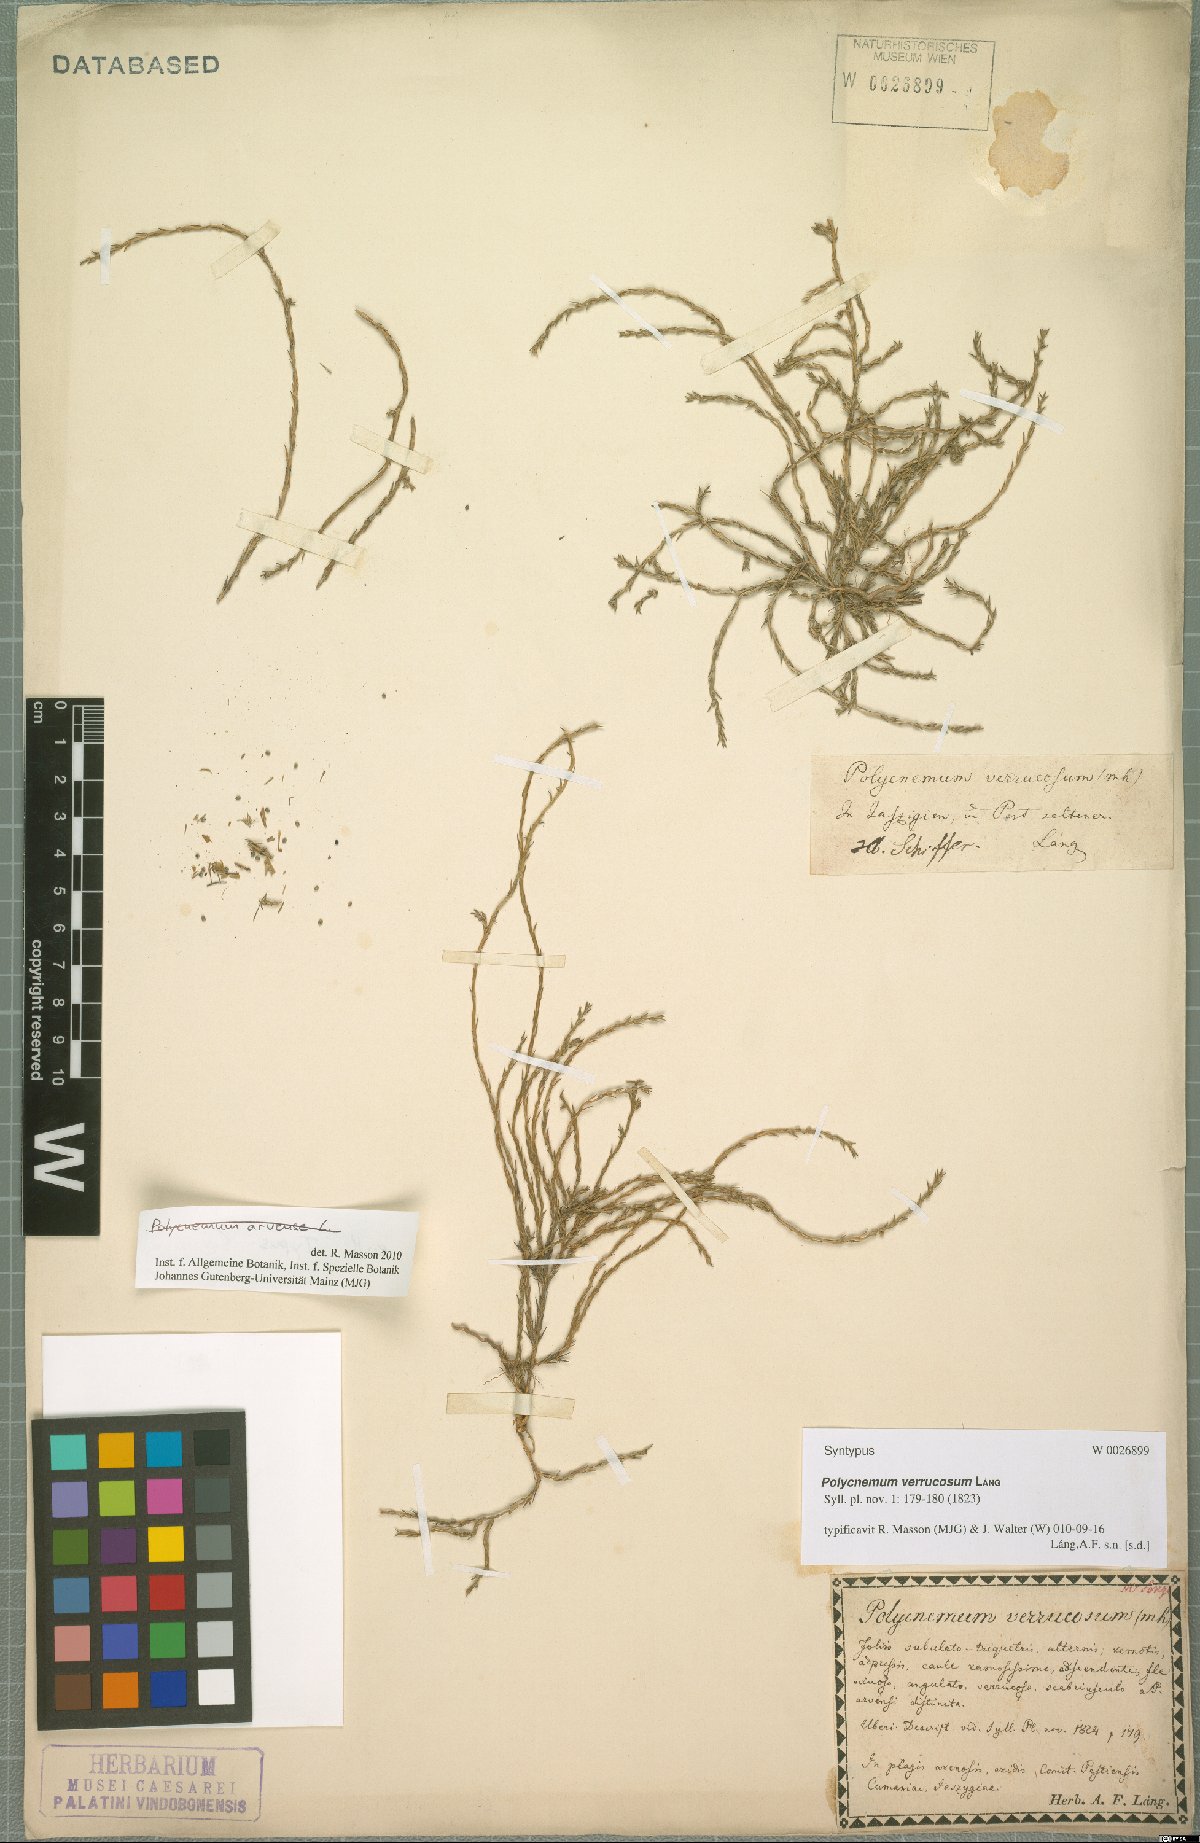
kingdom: Plantae
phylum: Tracheophyta
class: Magnoliopsida
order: Caryophyllales
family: Amaranthaceae
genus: Polycnemum
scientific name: Polycnemum verrucosum
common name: Warty needleleaf
